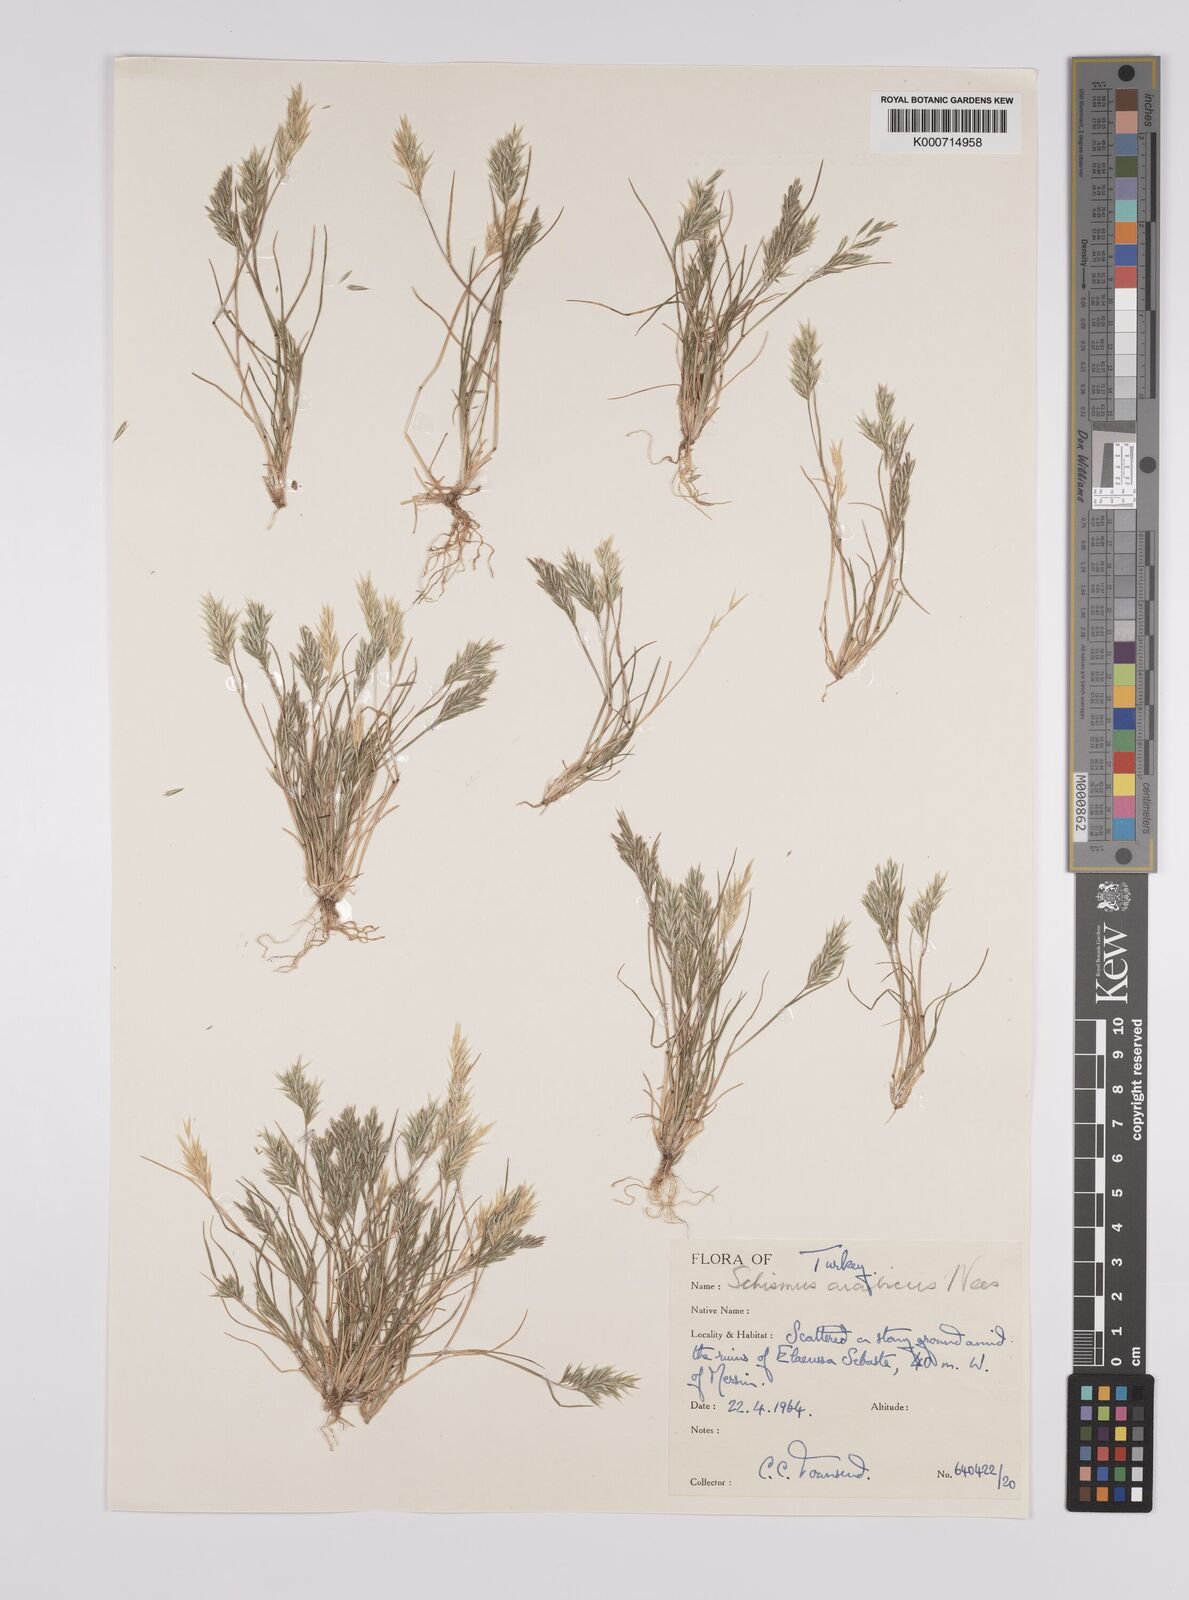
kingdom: Plantae
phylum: Tracheophyta
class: Liliopsida
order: Poales
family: Poaceae
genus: Schismus
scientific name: Schismus arabicus
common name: Arabian schismus
